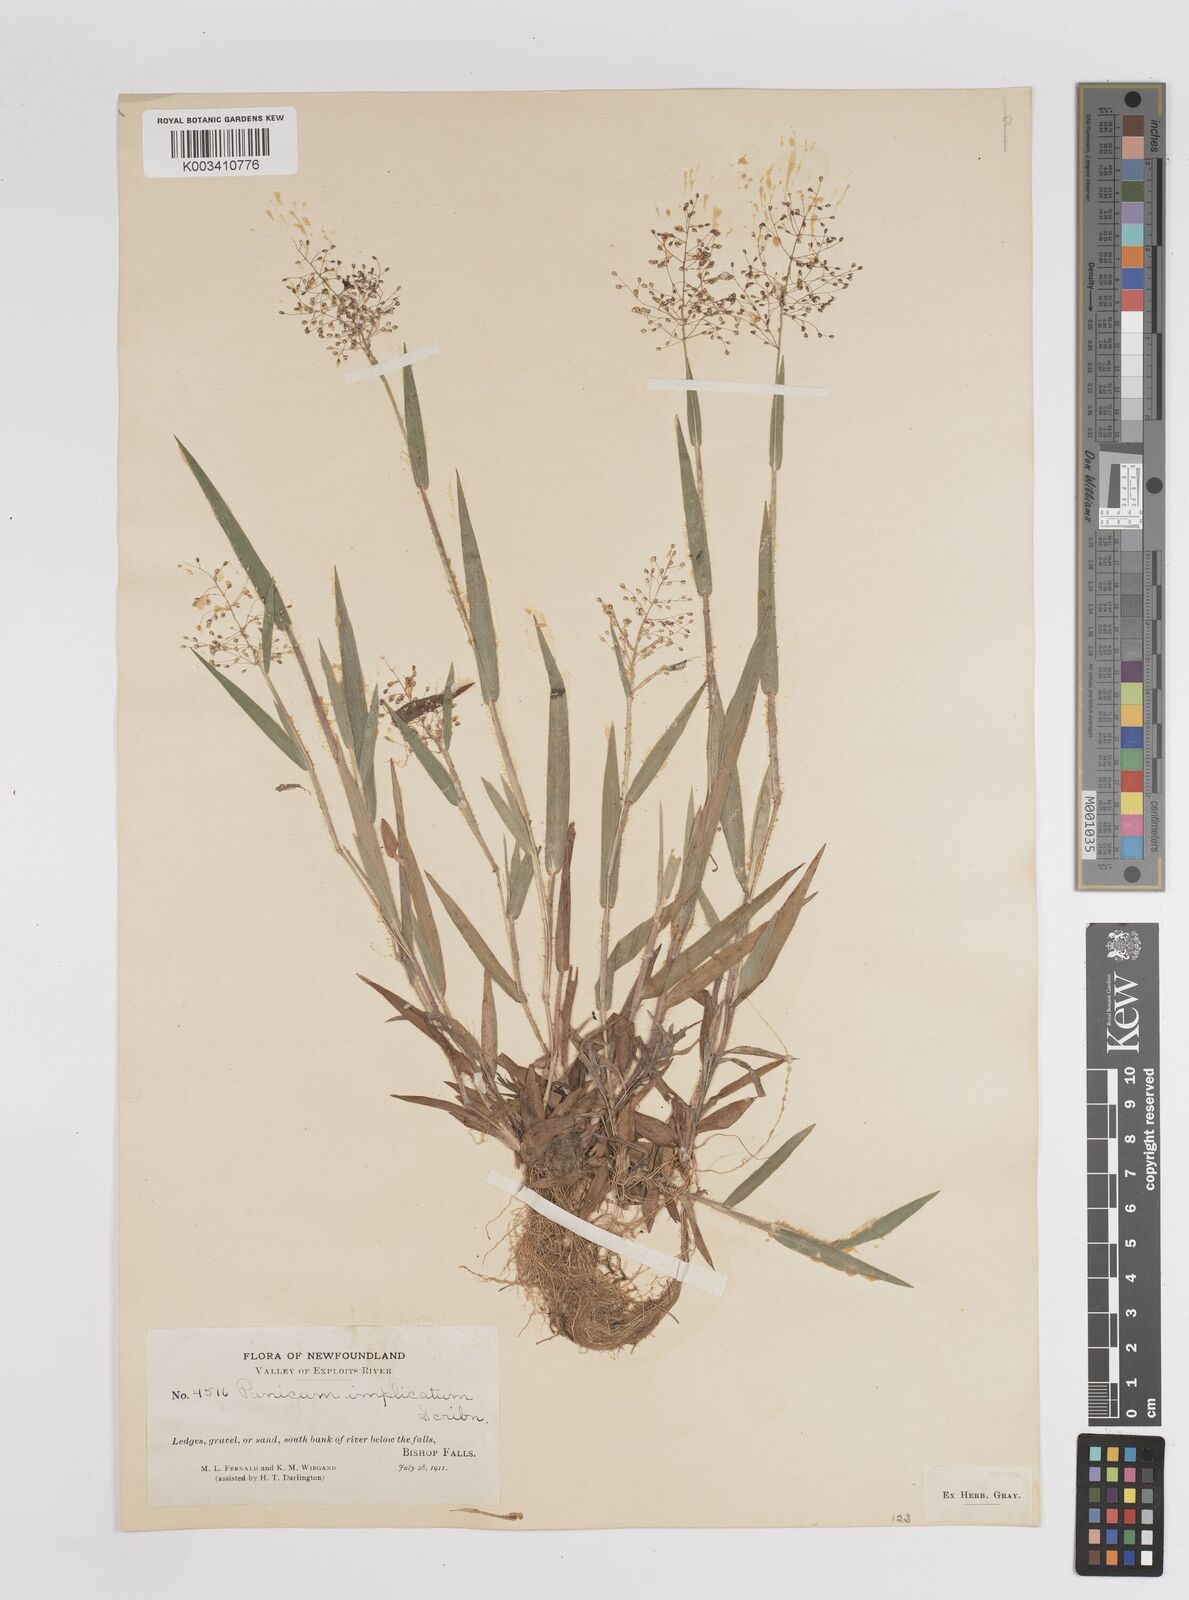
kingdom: Plantae
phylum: Tracheophyta
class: Liliopsida
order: Poales
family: Poaceae
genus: Dichanthelium
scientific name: Dichanthelium implicatum
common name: Slender-stemmed panicgrass
